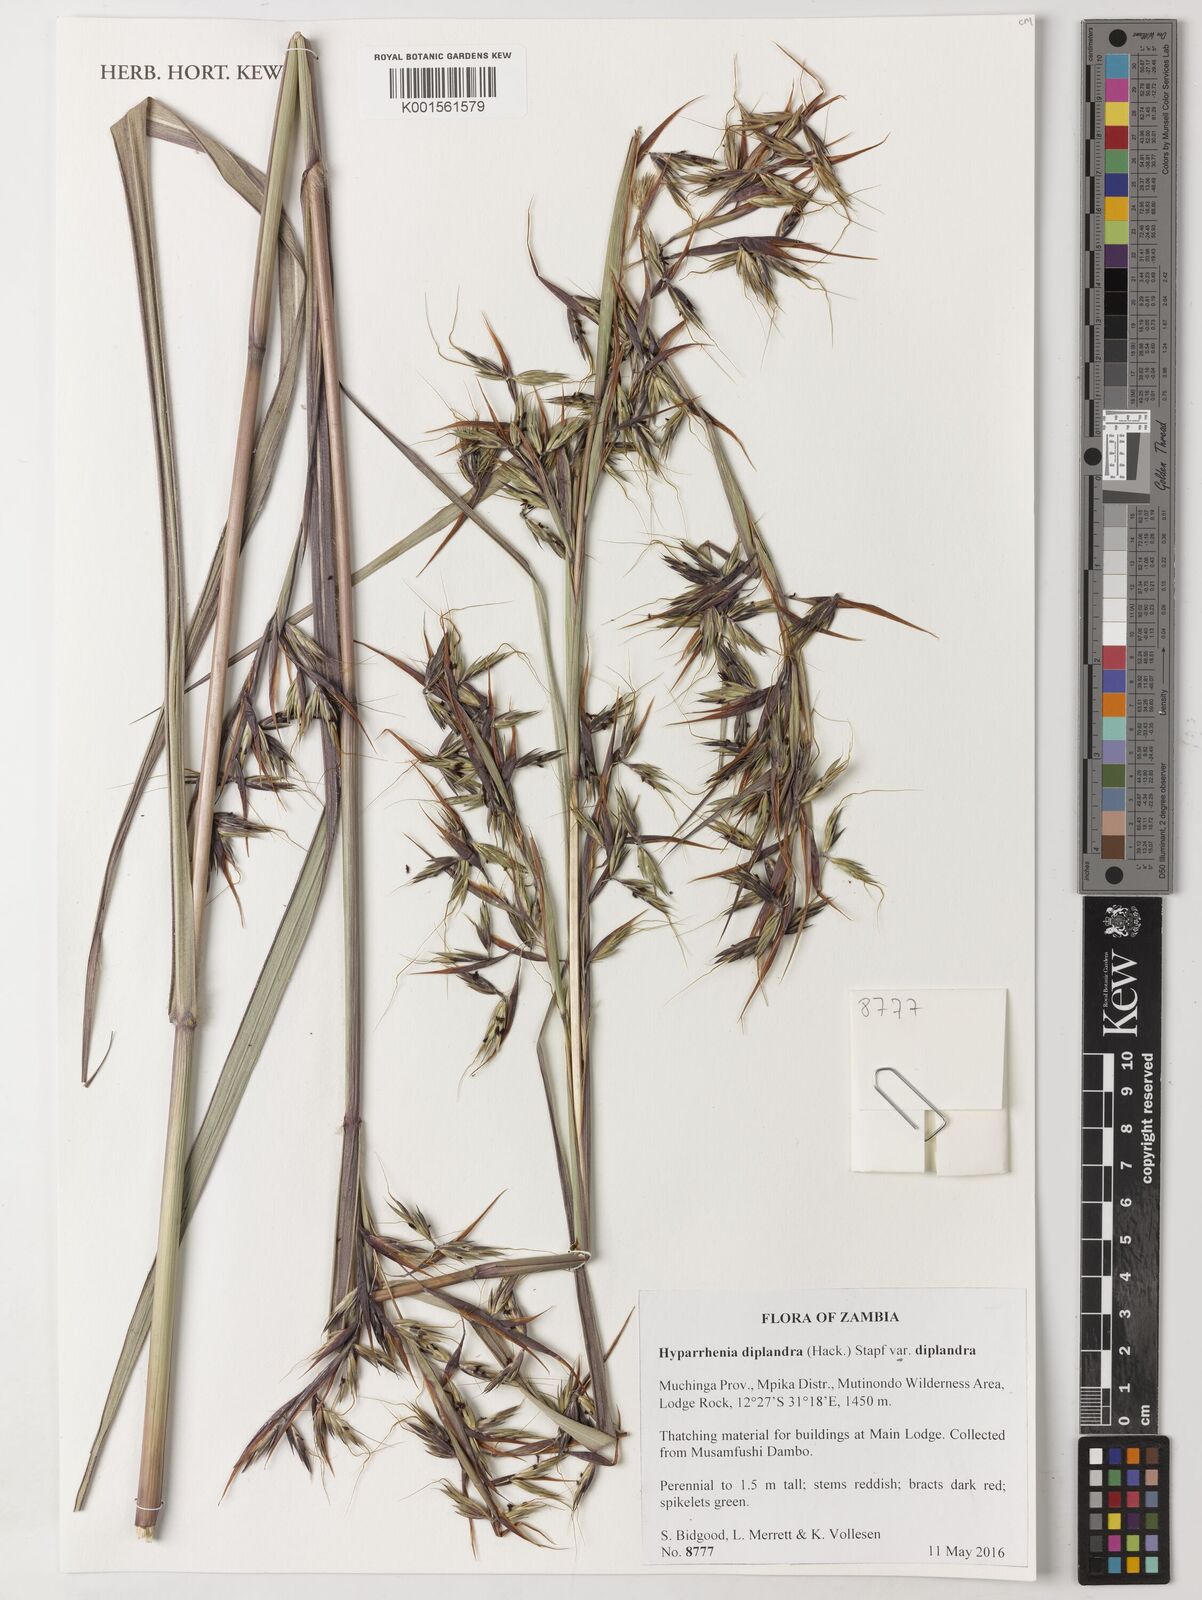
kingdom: Plantae
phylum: Tracheophyta
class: Liliopsida
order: Poales
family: Poaceae
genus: Hyparrhenia
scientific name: Hyparrhenia diplandra
